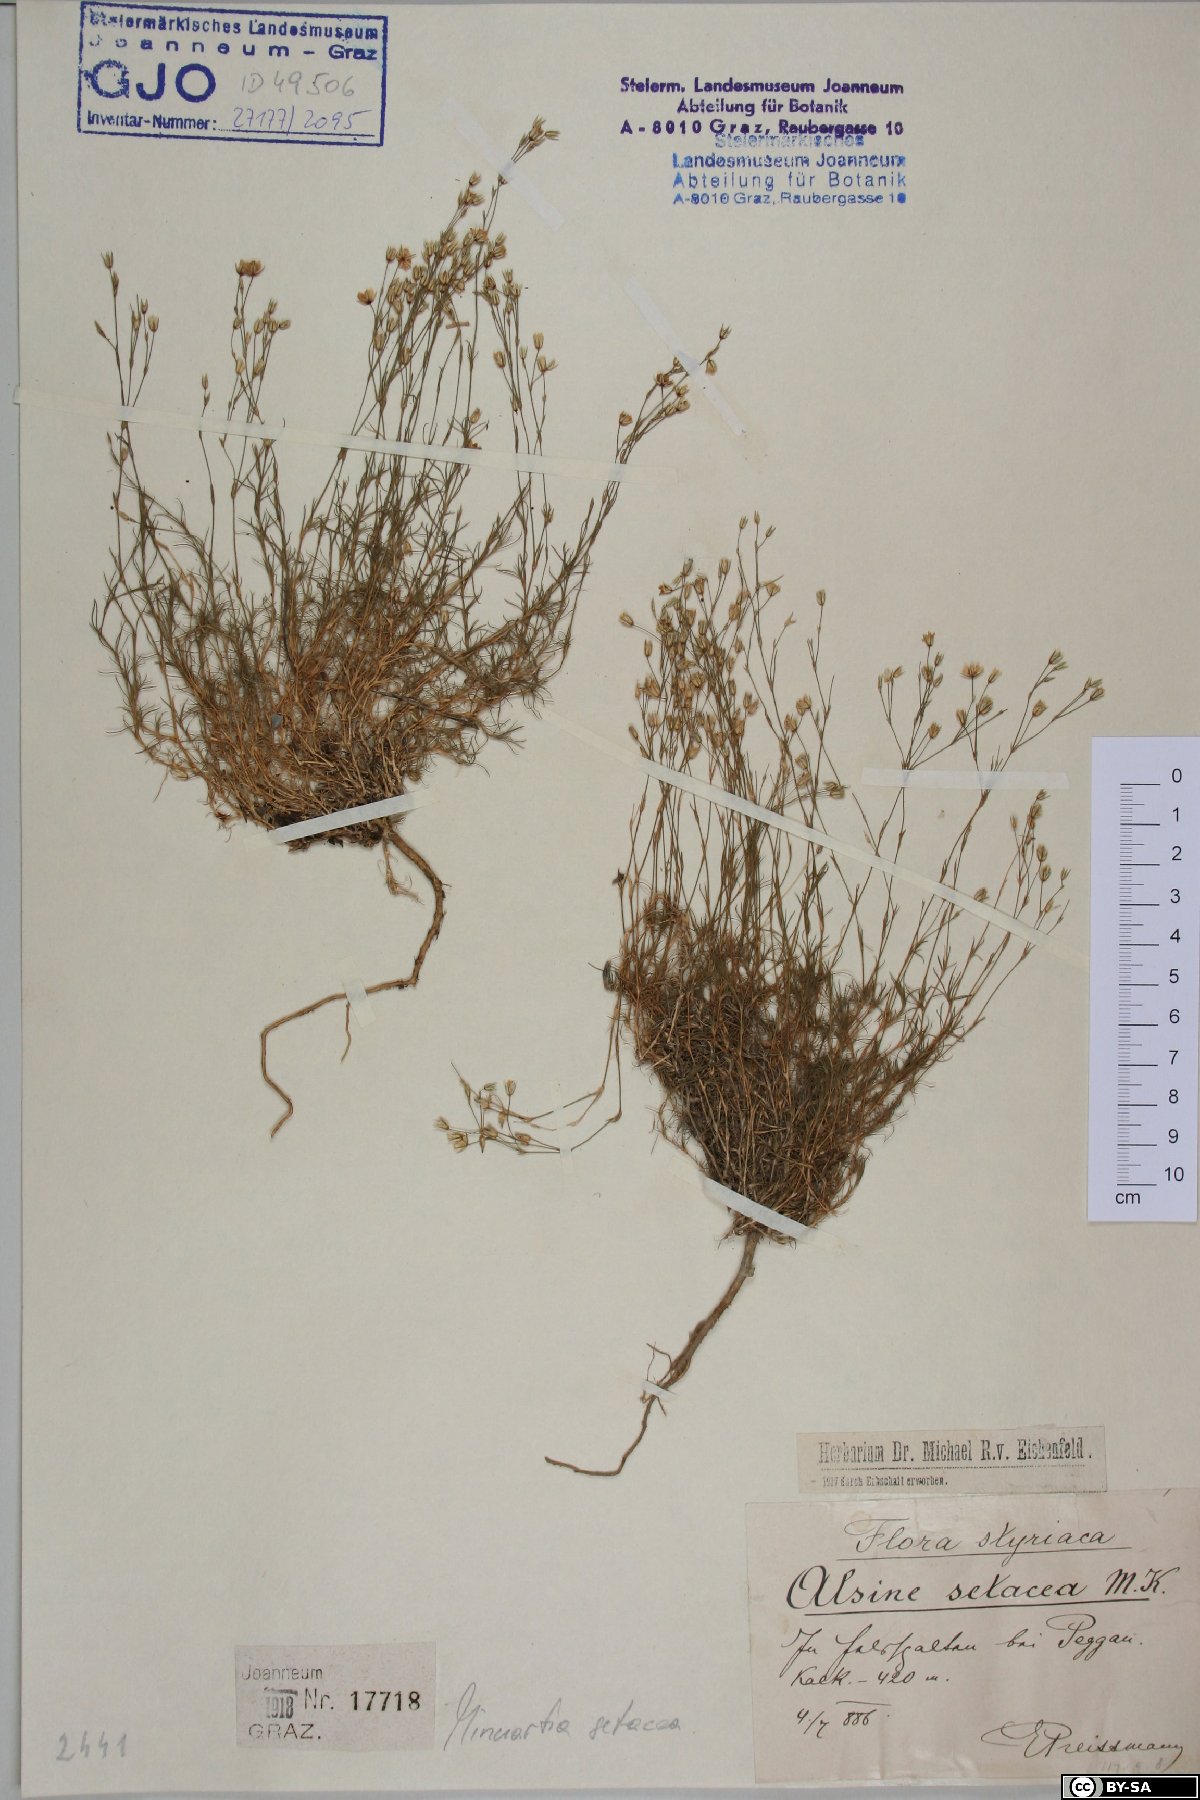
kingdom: Plantae
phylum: Tracheophyta
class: Magnoliopsida
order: Caryophyllales
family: Caryophyllaceae
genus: Minuartia
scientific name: Minuartia setacea
